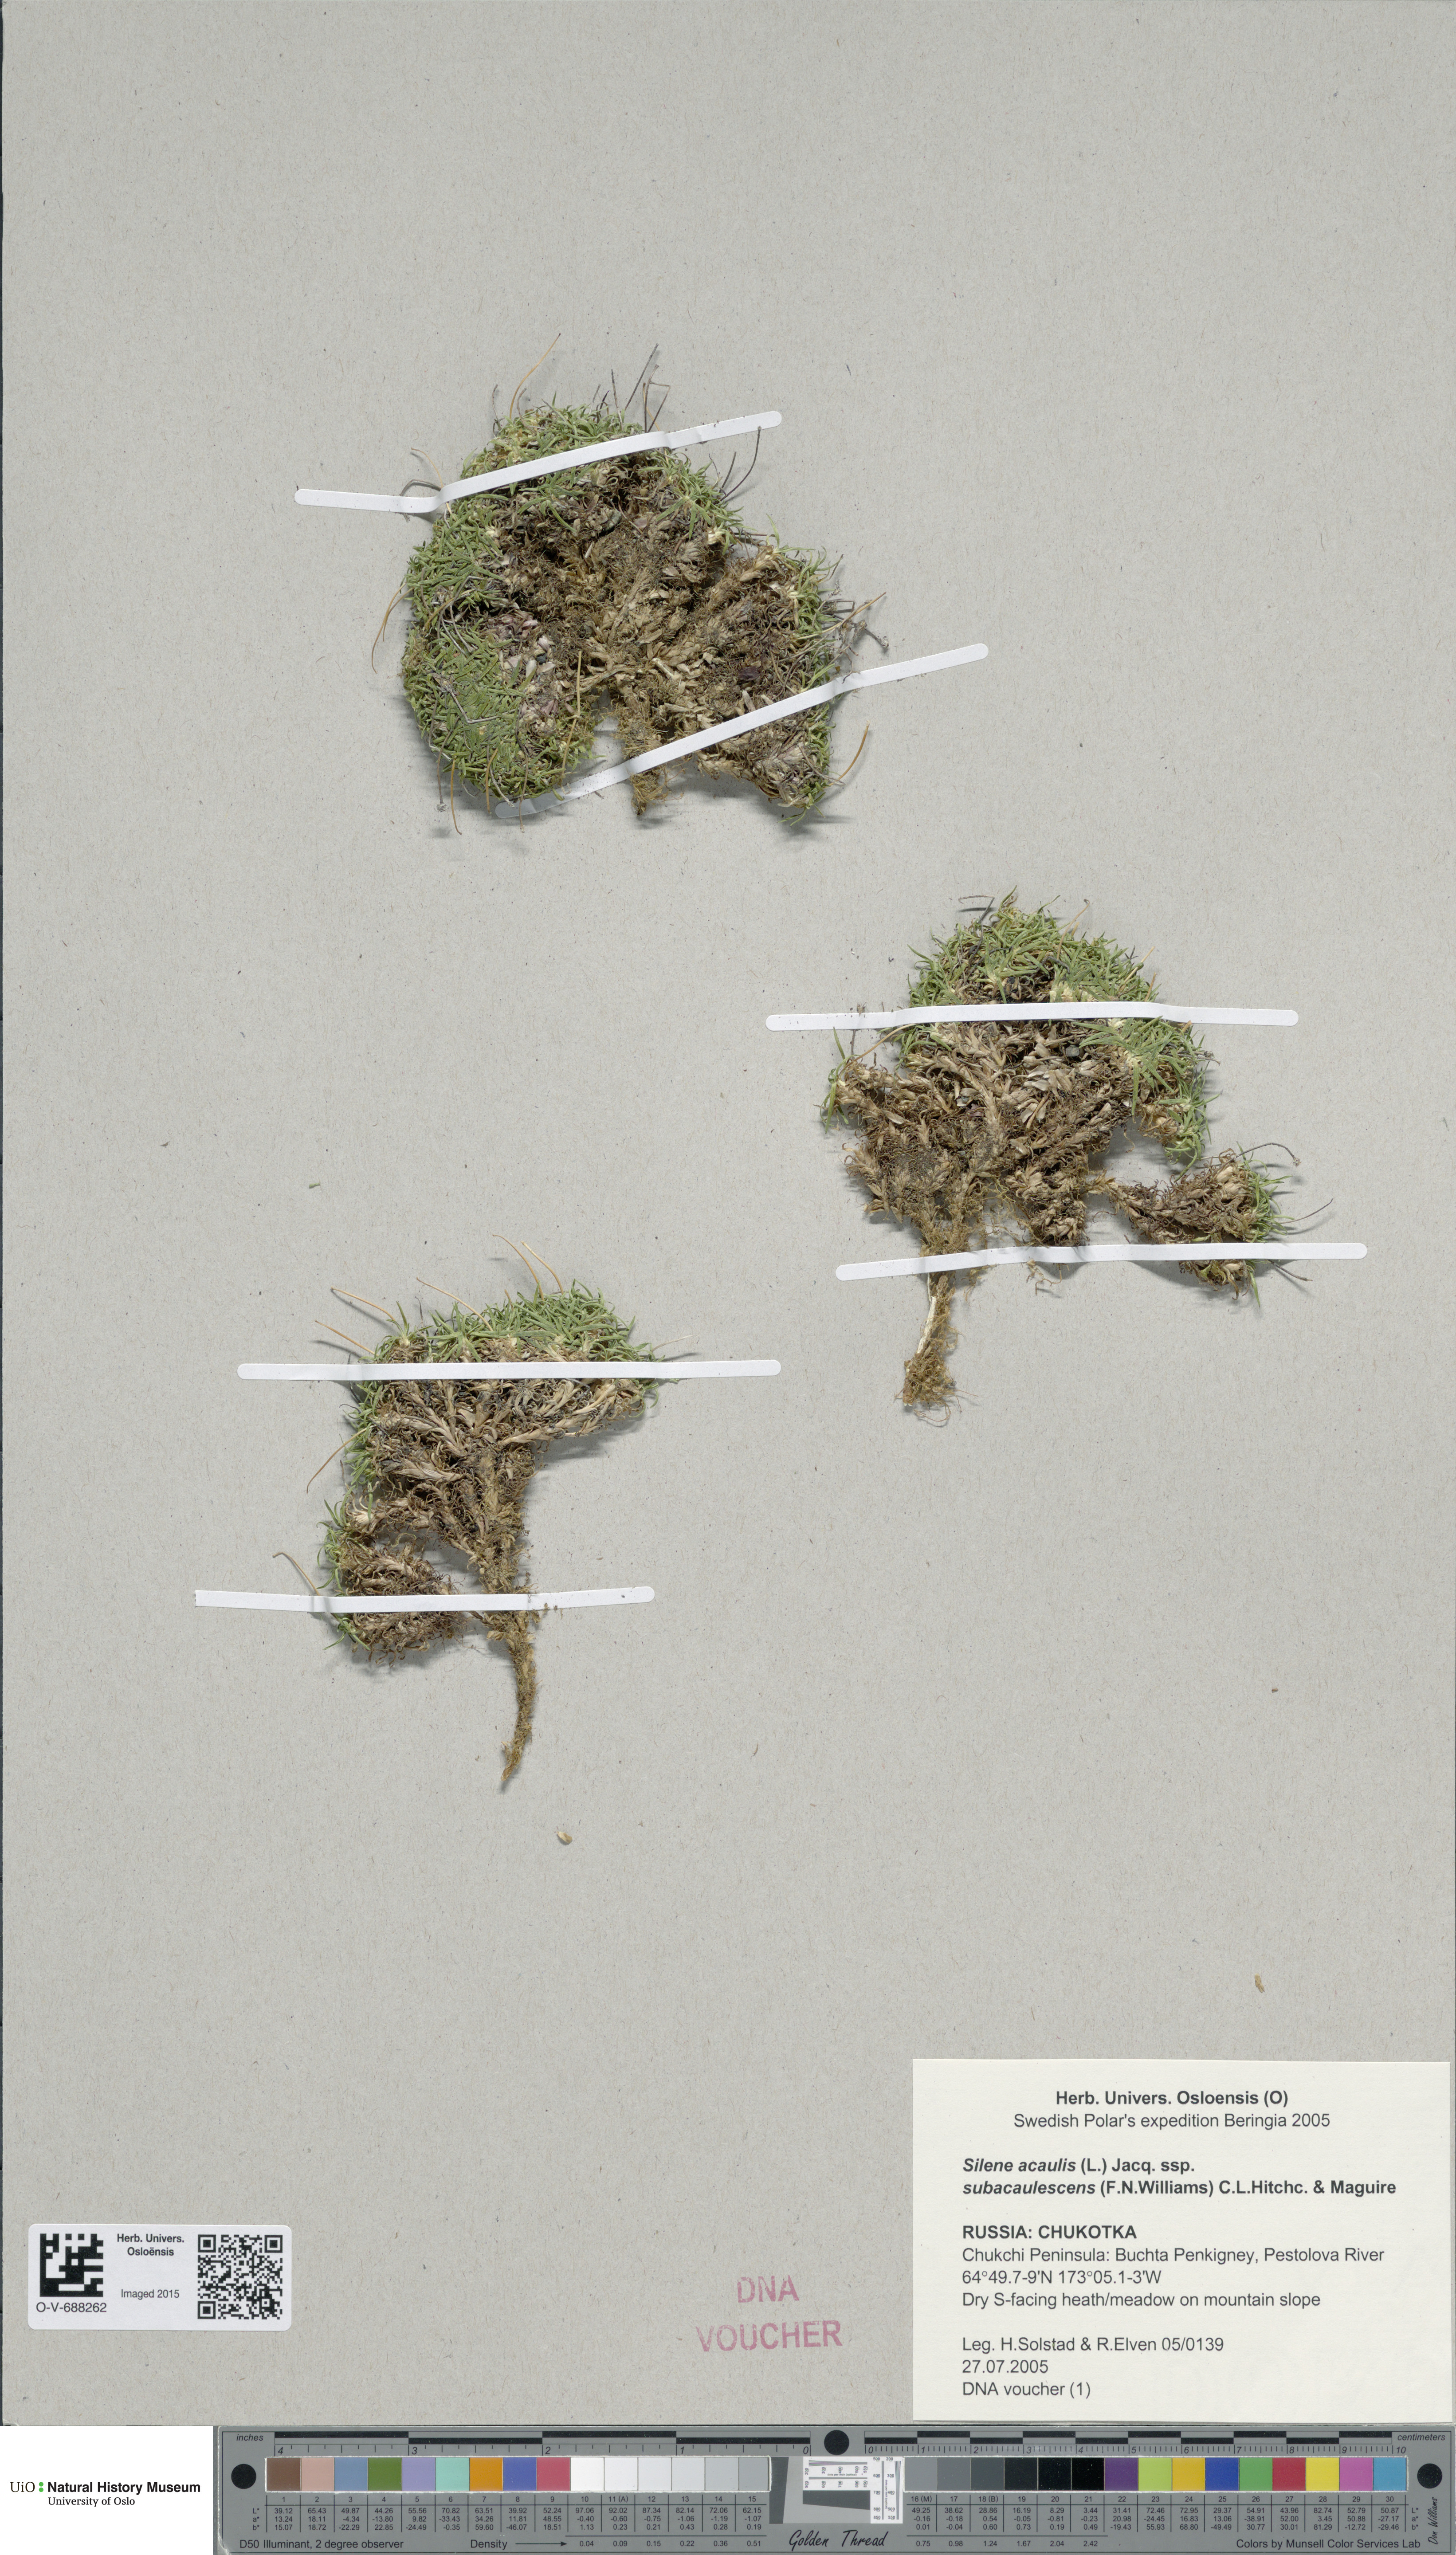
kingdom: Plantae
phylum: Tracheophyta
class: Magnoliopsida
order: Caryophyllales
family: Caryophyllaceae
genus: Silene
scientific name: Silene acaulis
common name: Moss campion
